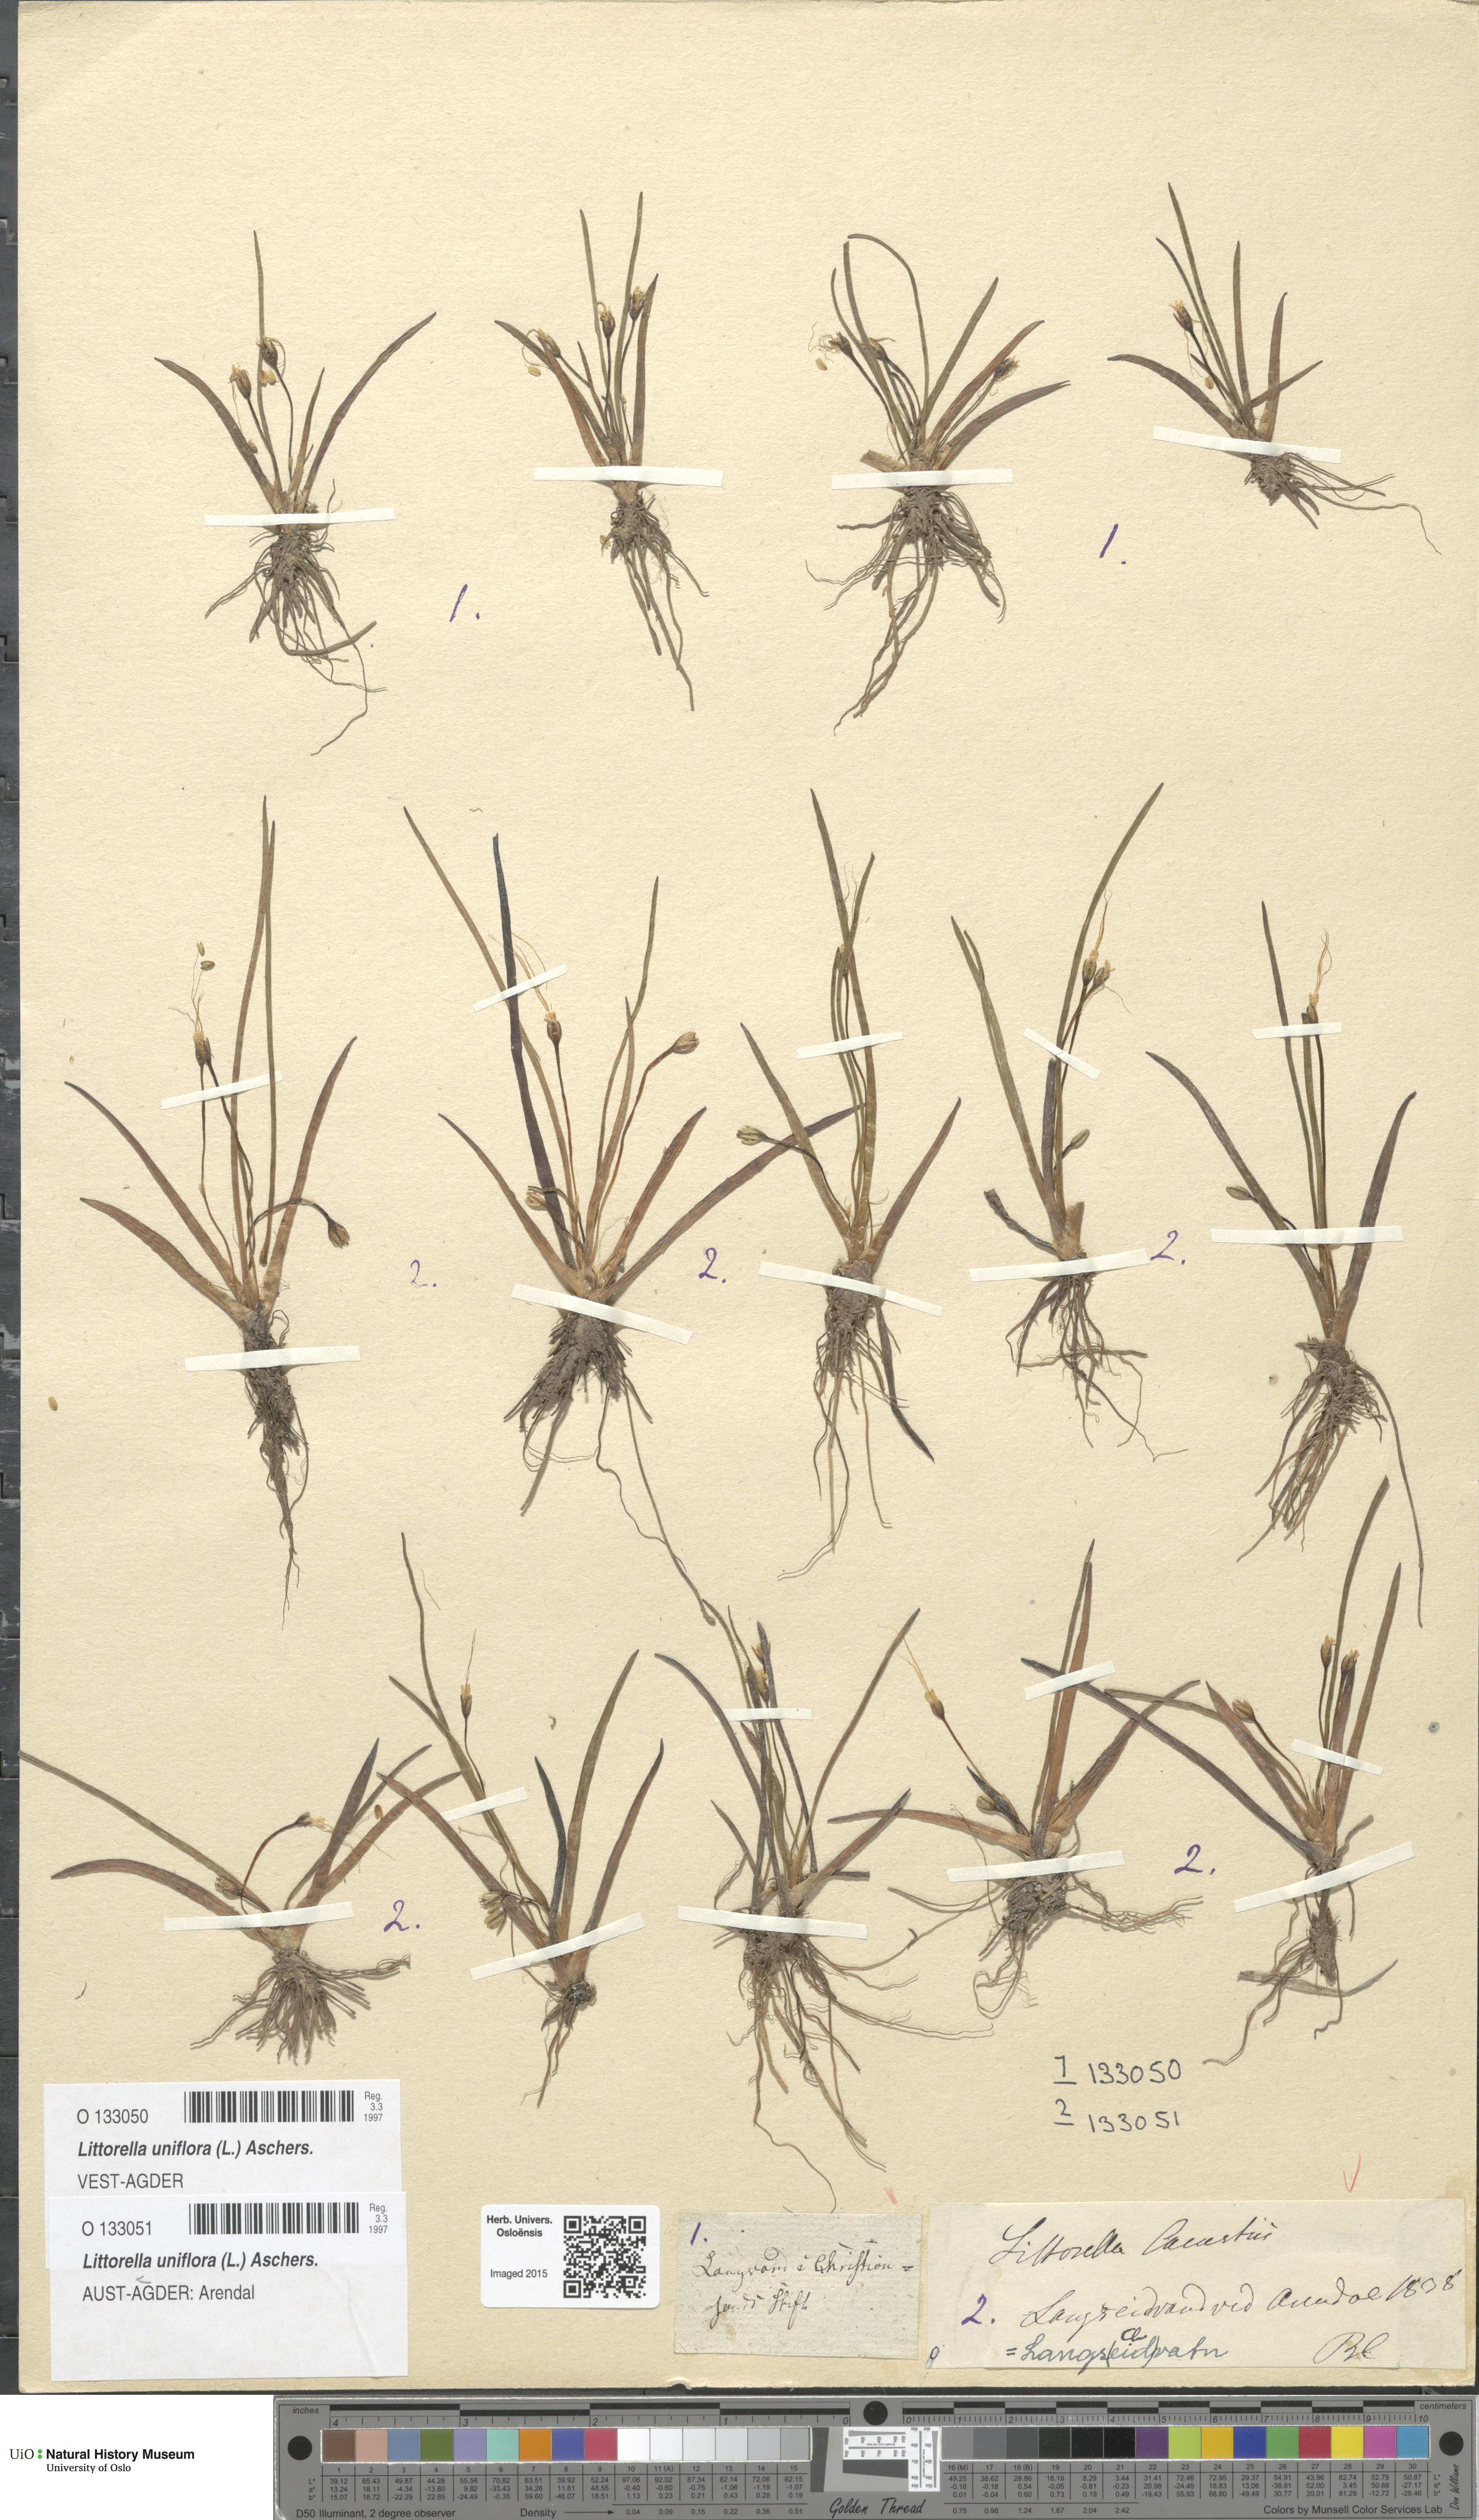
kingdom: Plantae
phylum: Tracheophyta
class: Magnoliopsida
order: Lamiales
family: Plantaginaceae
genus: Littorella
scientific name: Littorella uniflora
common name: Shoreweed
